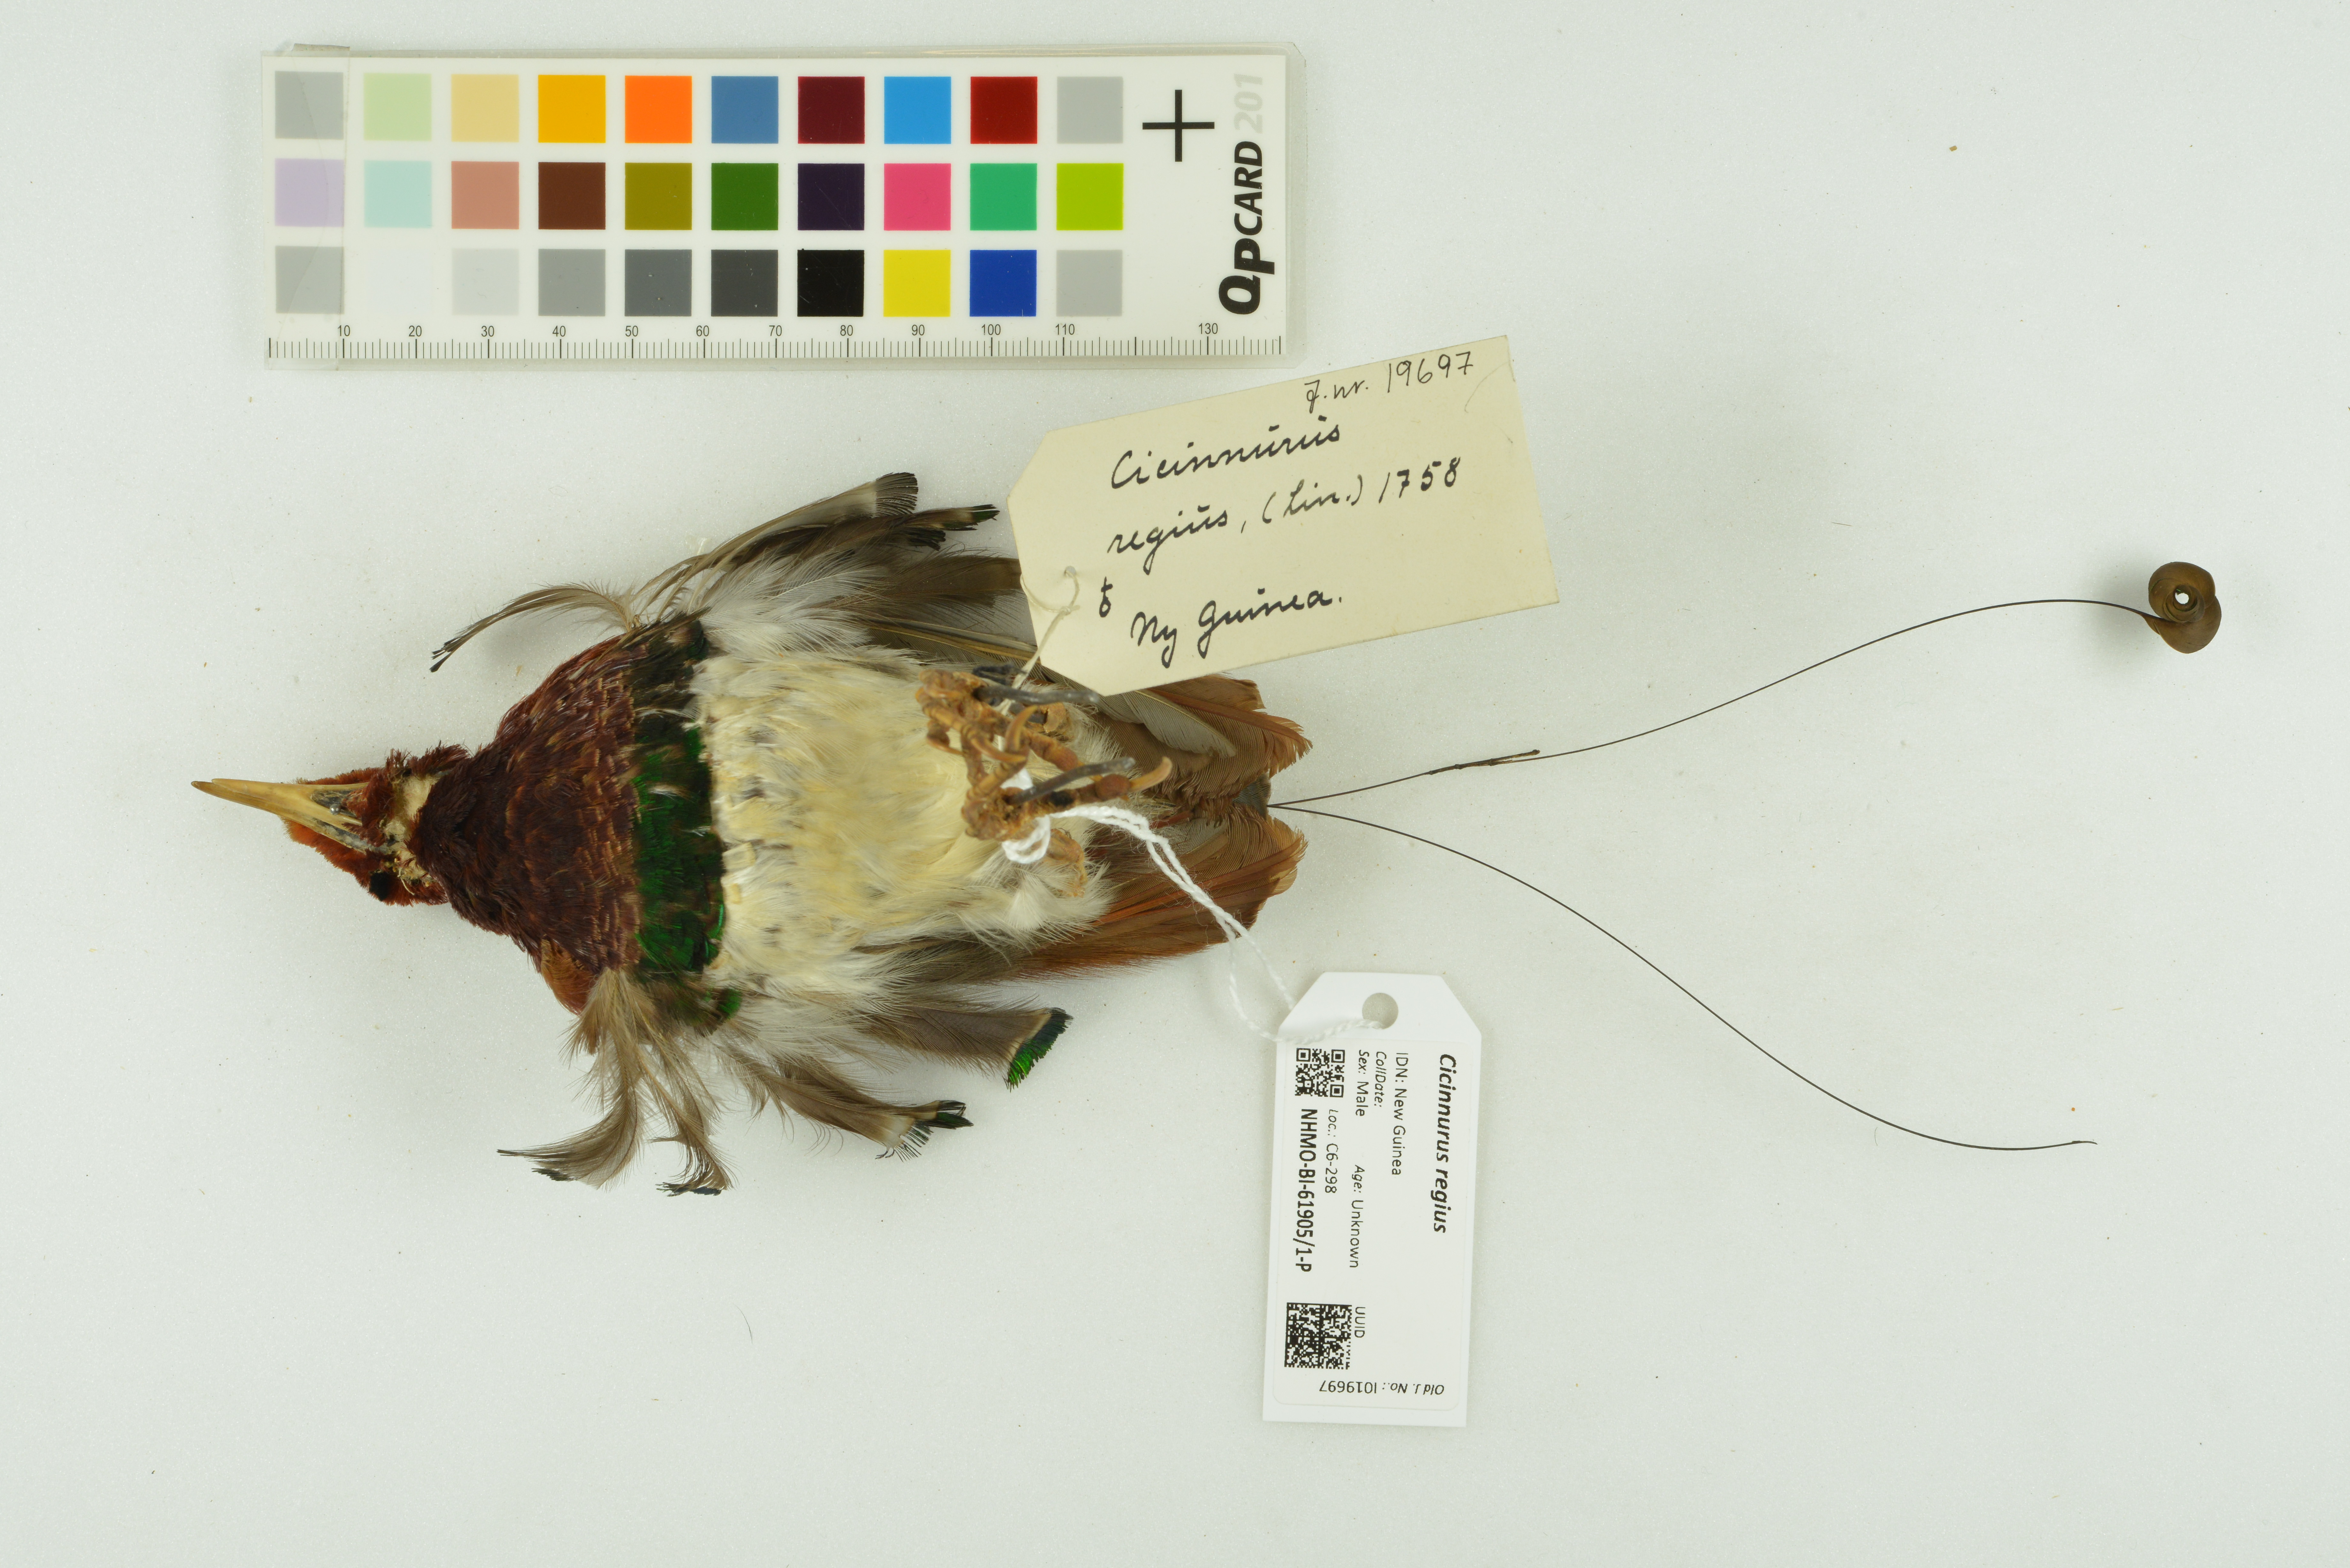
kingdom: Animalia
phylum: Chordata
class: Aves
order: Passeriformes
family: Paradisaeidae
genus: Cicinnurus
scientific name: Cicinnurus regius
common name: King bird-of-paradise
